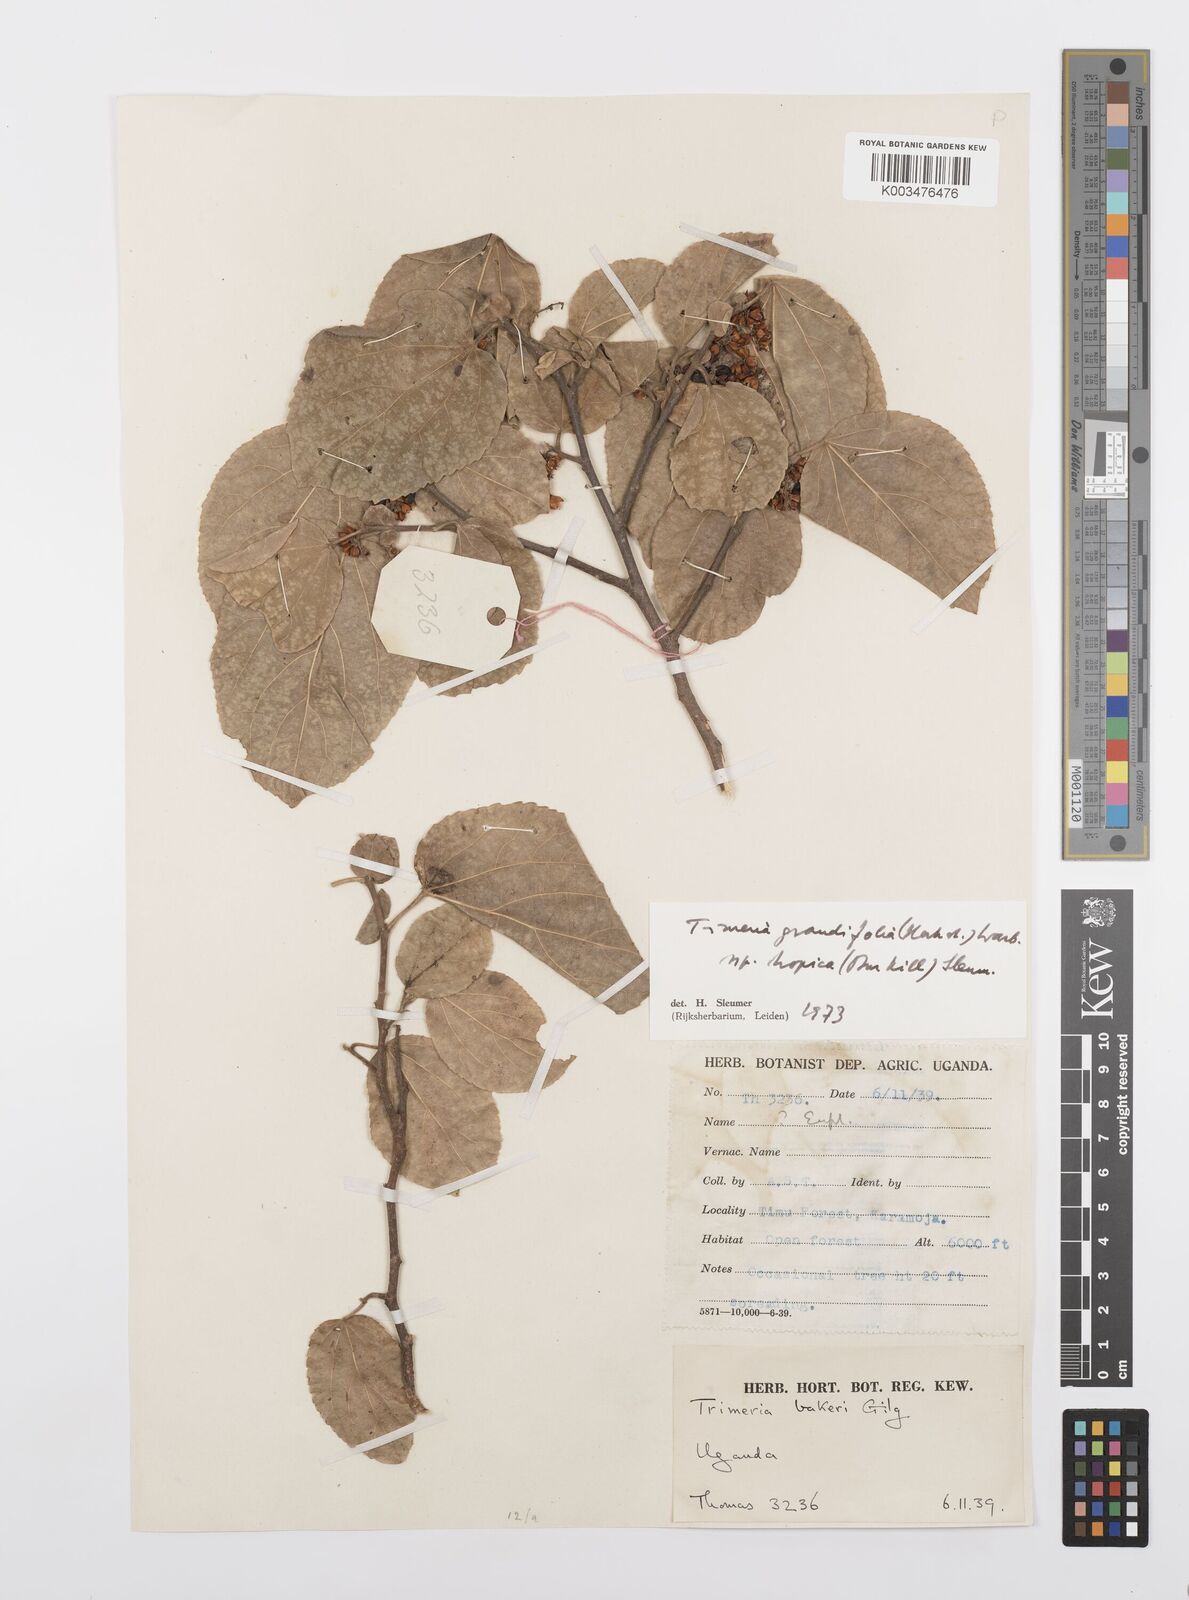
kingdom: Plantae
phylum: Tracheophyta
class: Magnoliopsida
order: Malpighiales
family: Salicaceae
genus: Trimeria
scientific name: Trimeria grandifolia
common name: Wild mulberry
